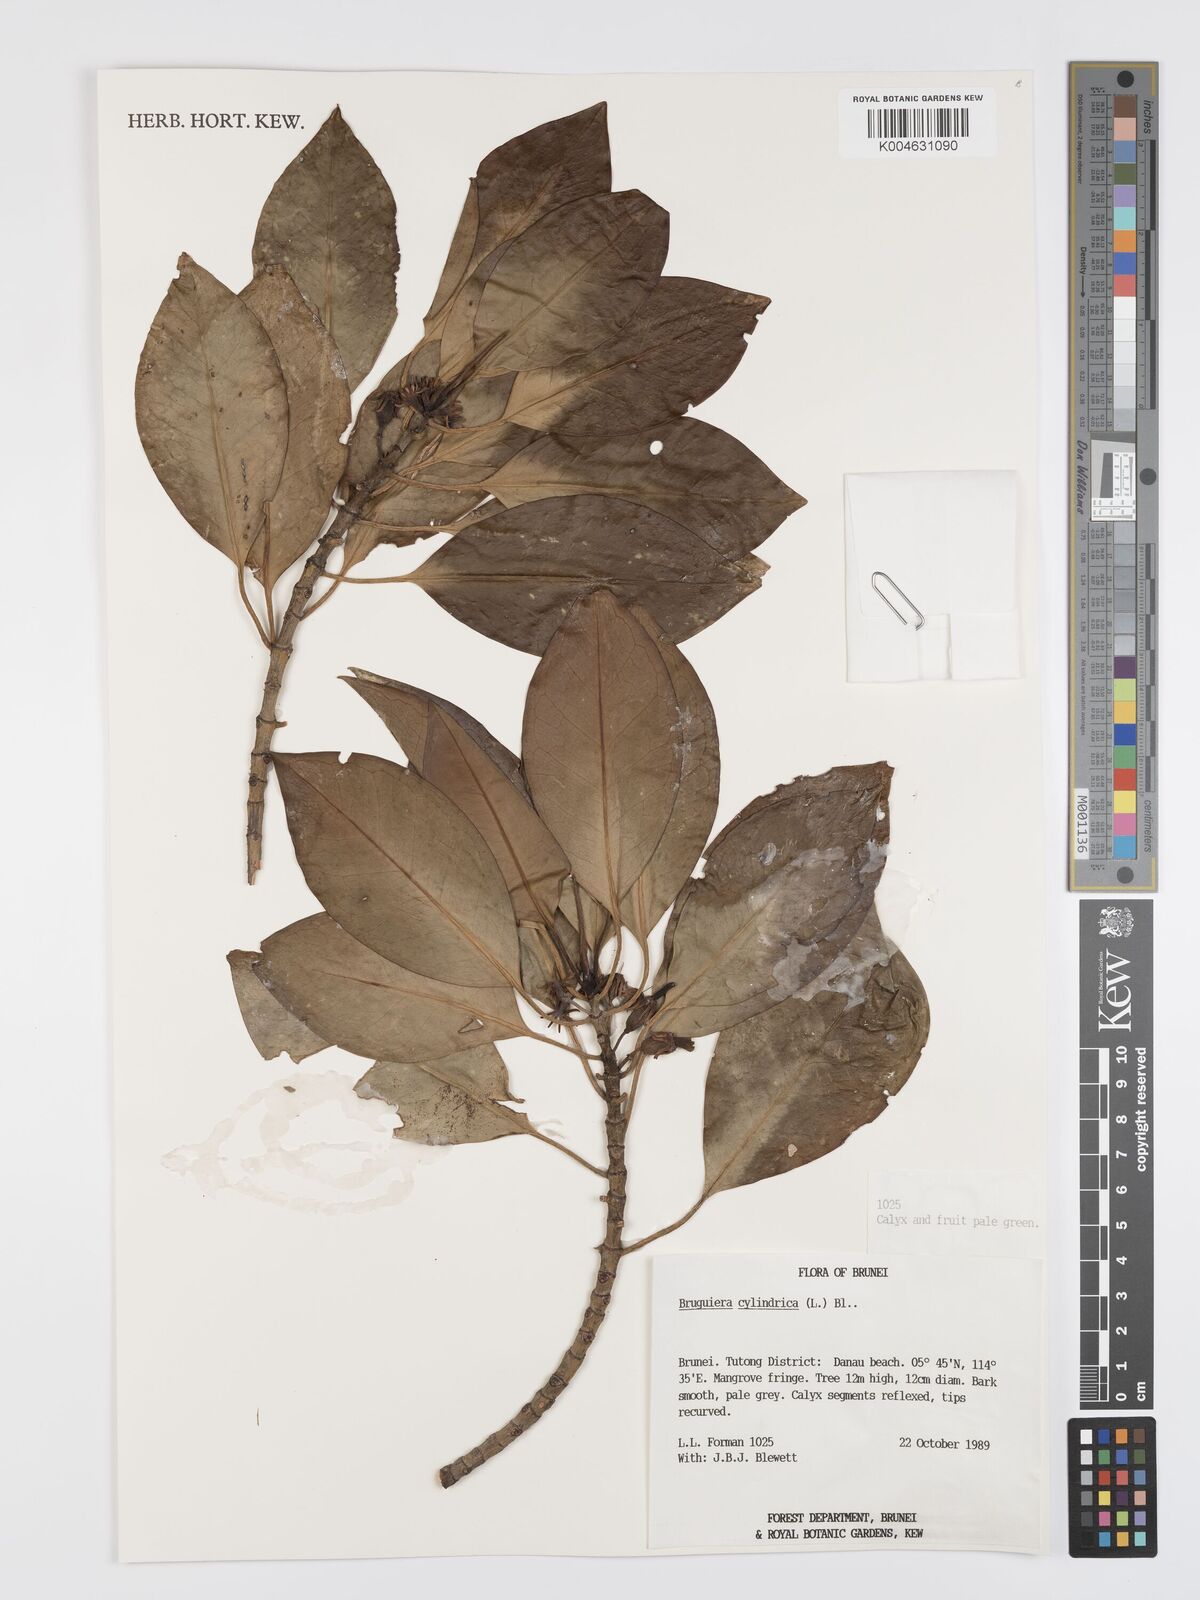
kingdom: Plantae
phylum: Tracheophyta
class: Magnoliopsida
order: Malpighiales
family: Rhizophoraceae
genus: Bruguiera
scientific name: Bruguiera cylindrica
